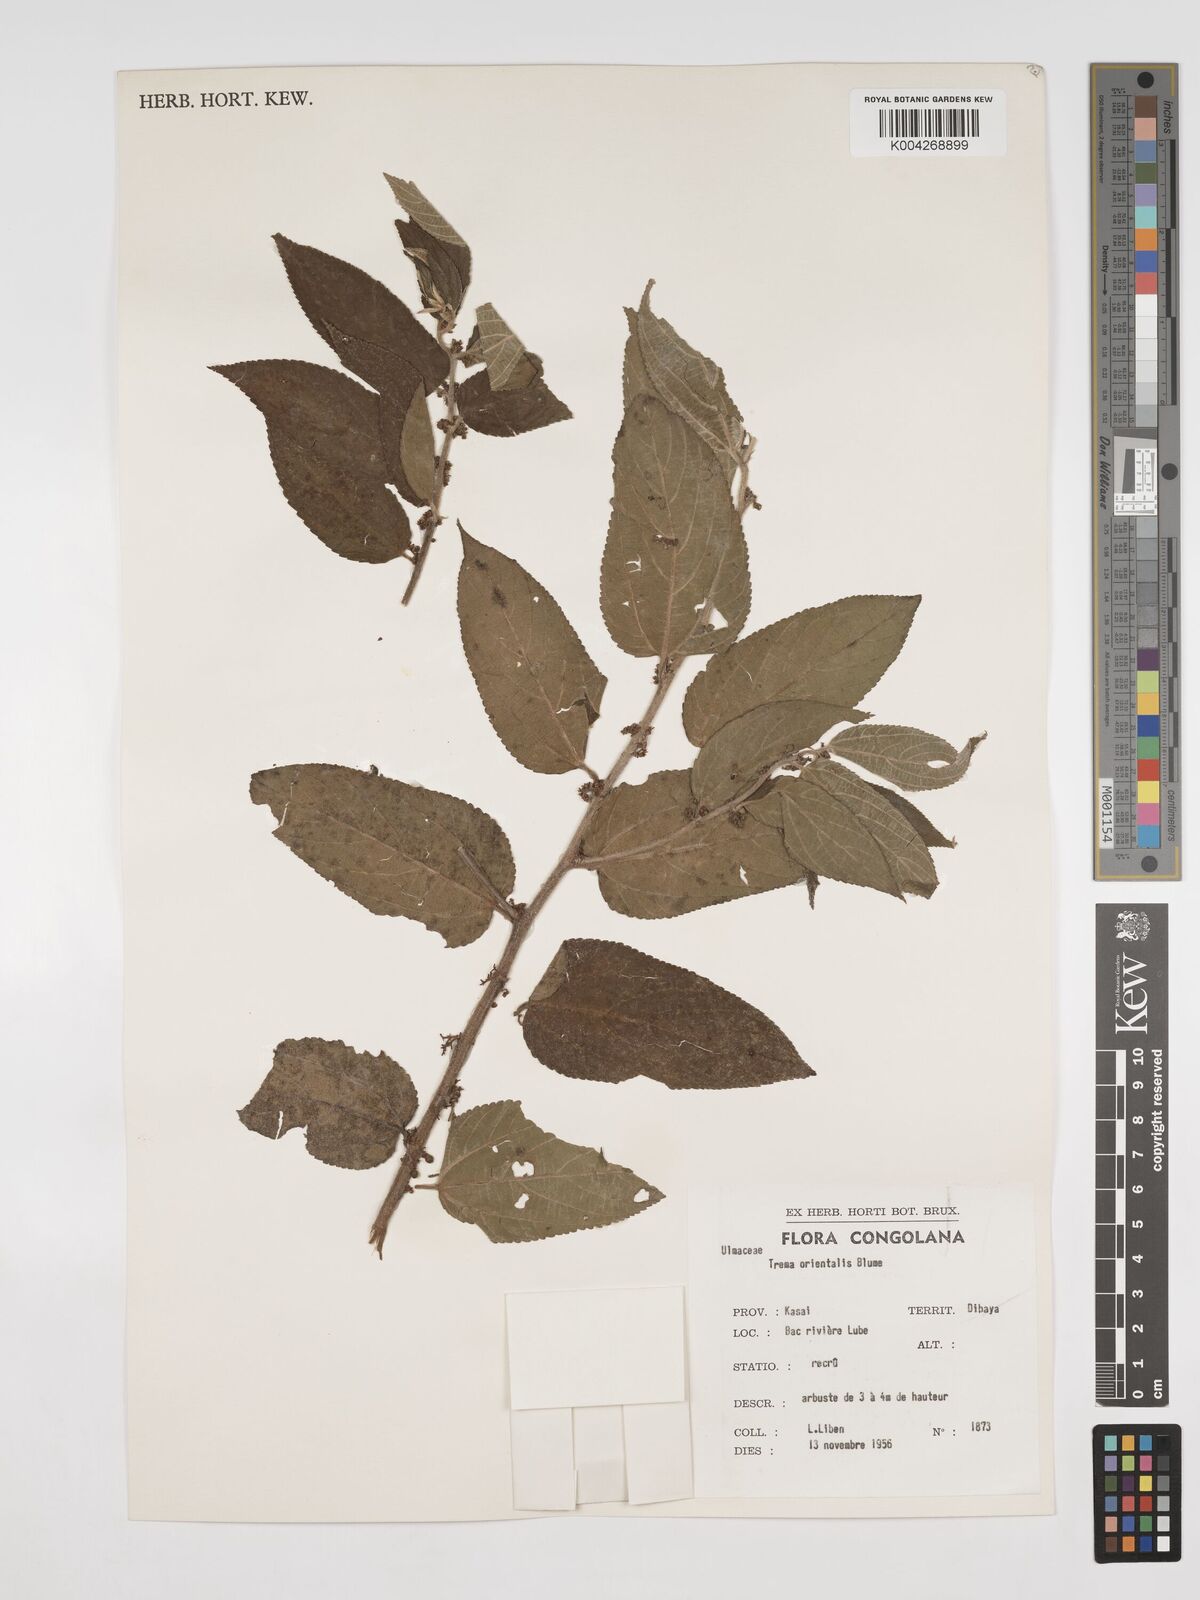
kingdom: Plantae
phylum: Tracheophyta
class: Magnoliopsida
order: Rosales
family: Cannabaceae
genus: Trema
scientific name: Trema orientale
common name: Indian charcoal tree
